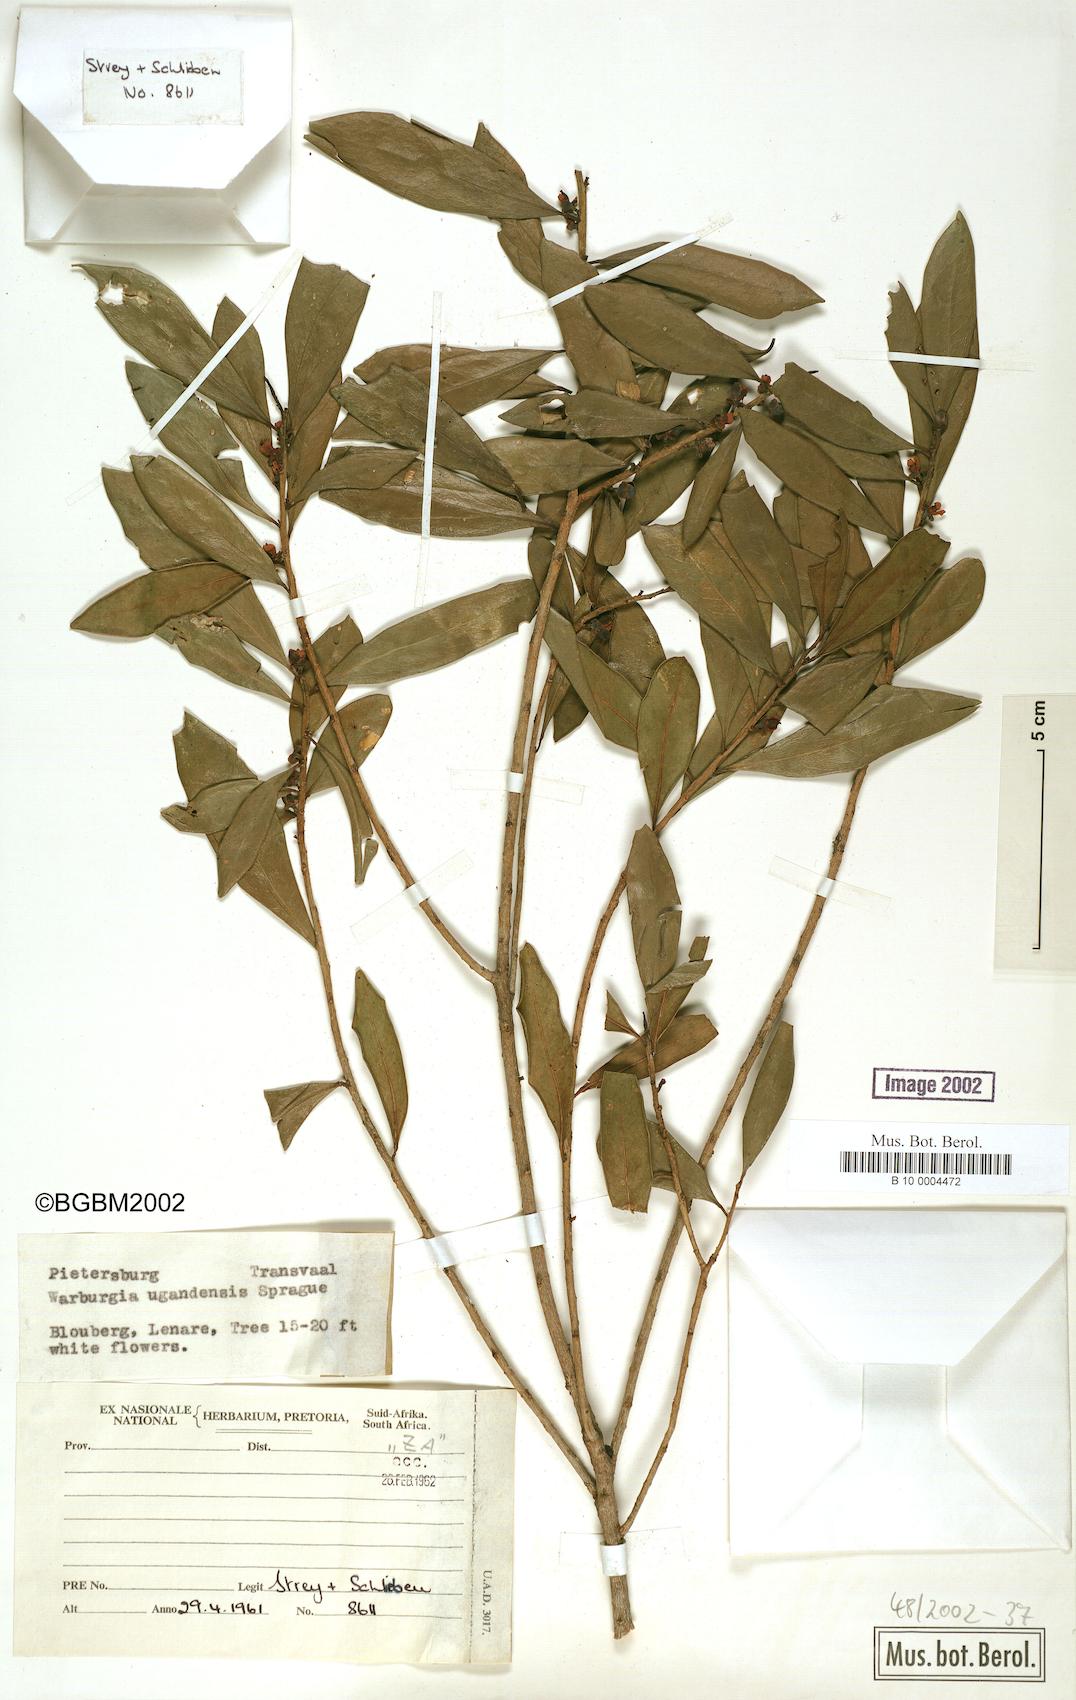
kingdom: Plantae
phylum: Tracheophyta
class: Magnoliopsida
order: Canellales
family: Canellaceae
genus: Warburgia
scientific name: Warburgia ugandensis
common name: East african greenbark
